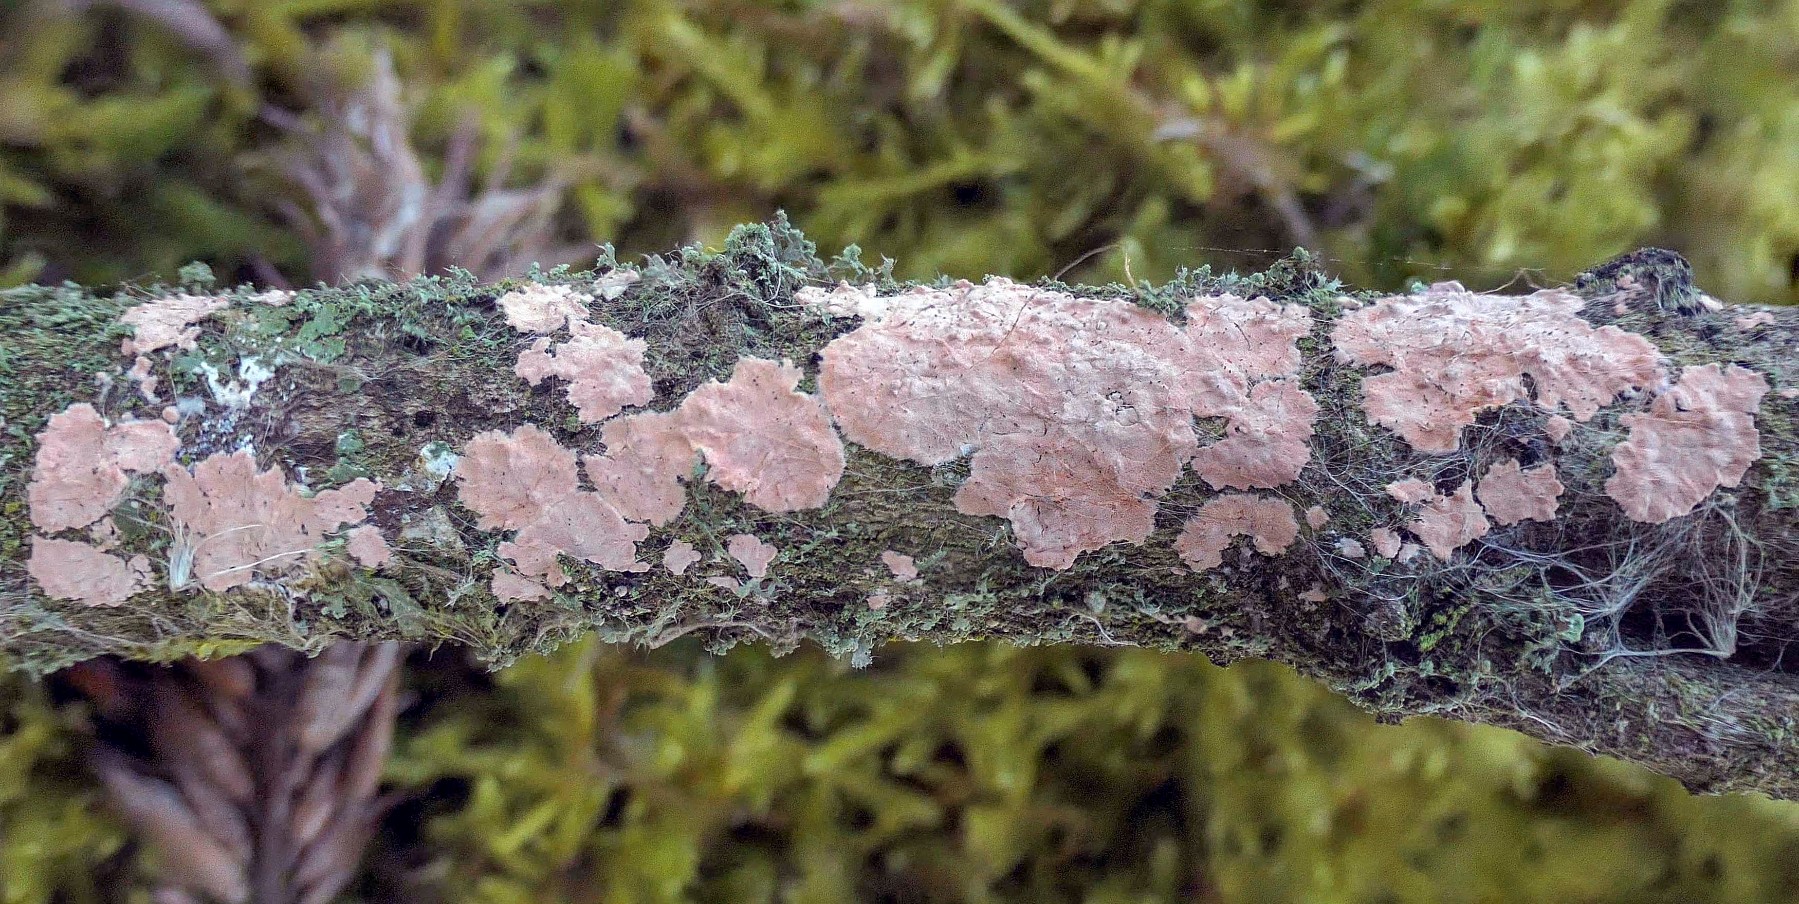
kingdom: Fungi
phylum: Basidiomycota
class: Agaricomycetes
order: Corticiales
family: Corticiaceae
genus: Corticium
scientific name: Corticium roseum
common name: rosa barkskind
